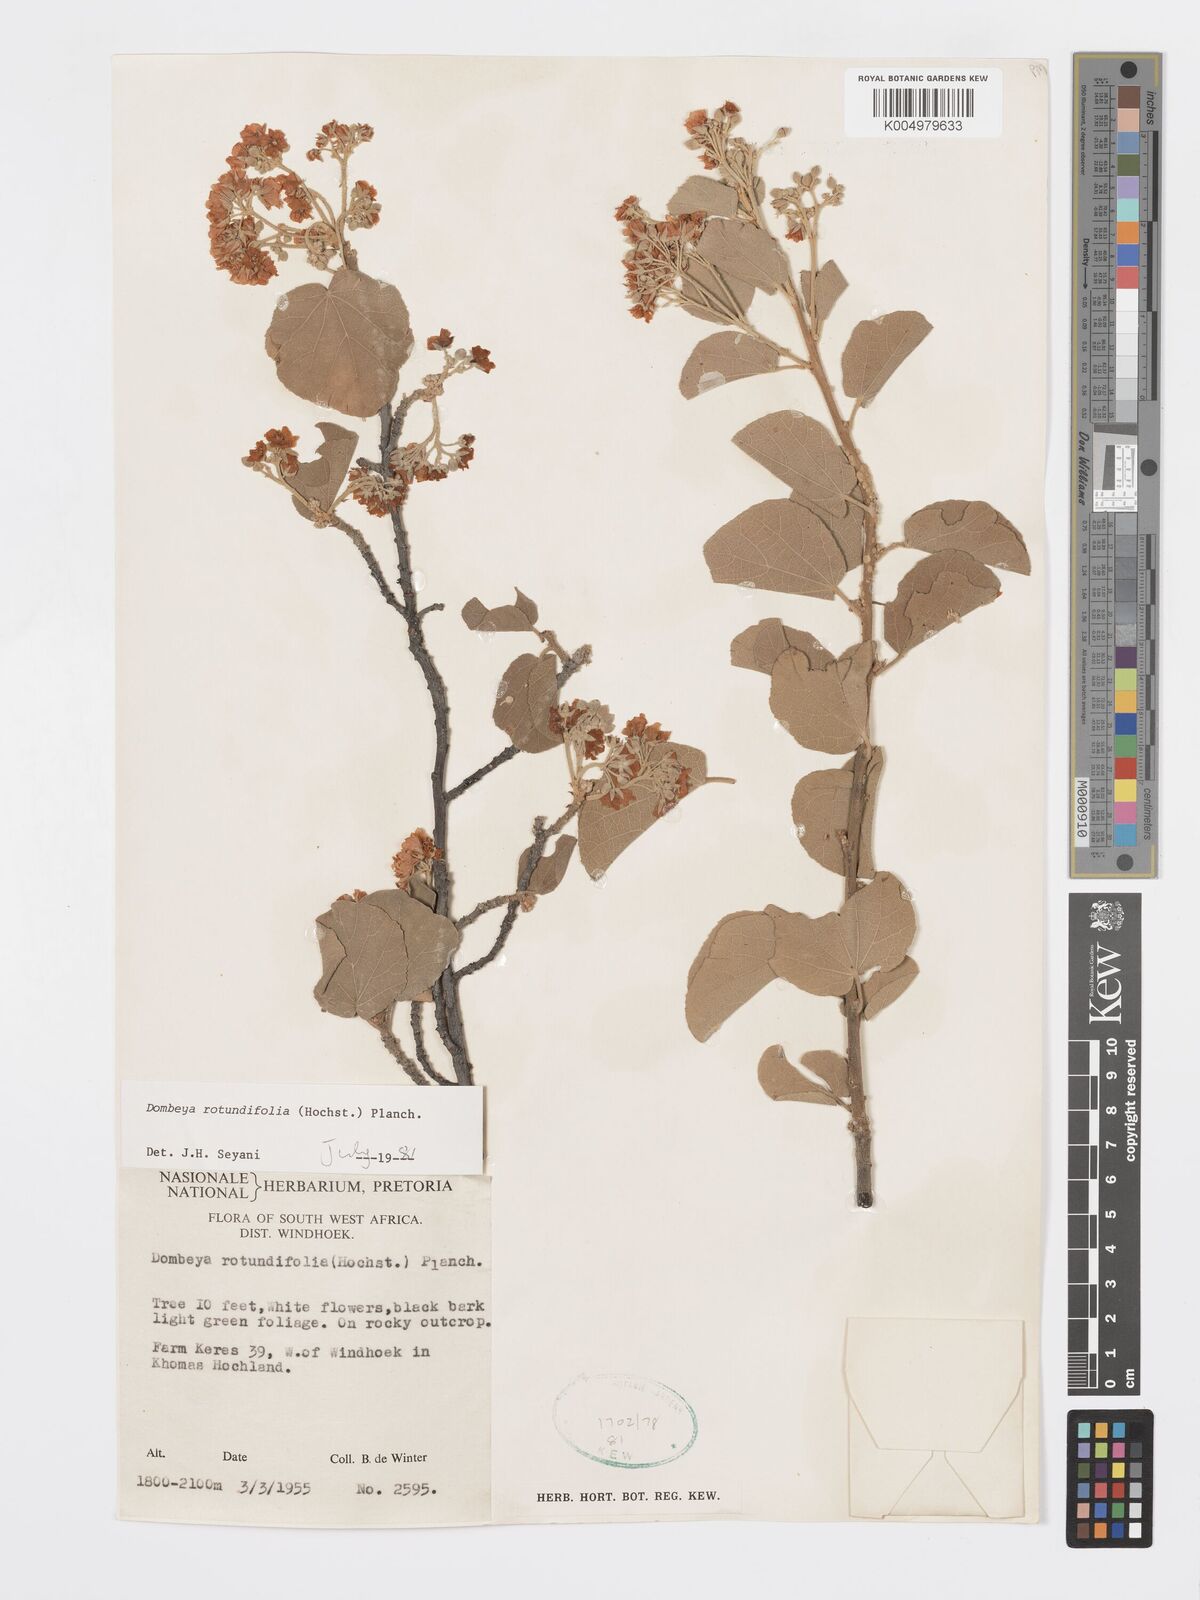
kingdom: Plantae
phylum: Tracheophyta
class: Magnoliopsida
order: Malvales
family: Malvaceae
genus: Dombeya
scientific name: Dombeya rotundifolia
